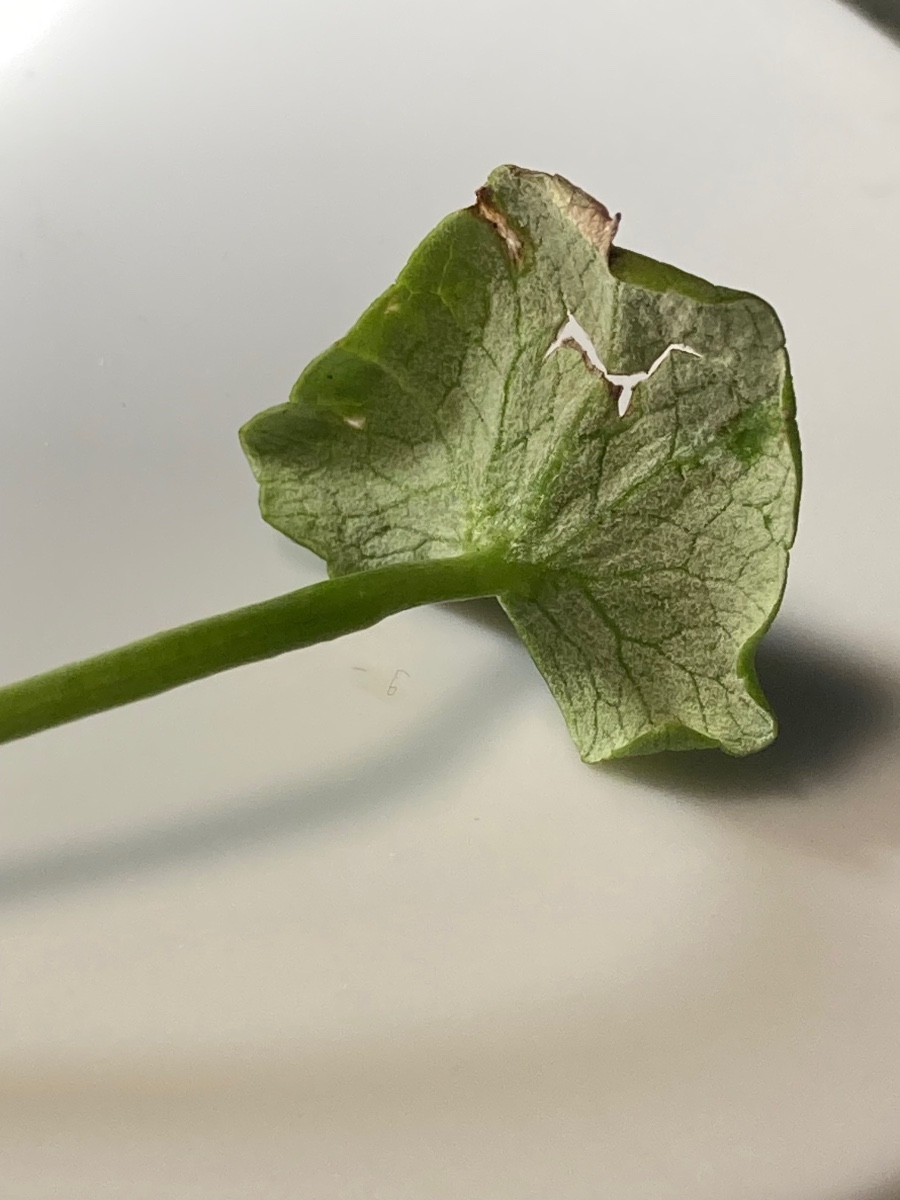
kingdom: Chromista
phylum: Oomycota
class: Peronosporea
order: Peronosporales
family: Peronosporaceae
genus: Peronospora
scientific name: Peronospora ficariae
